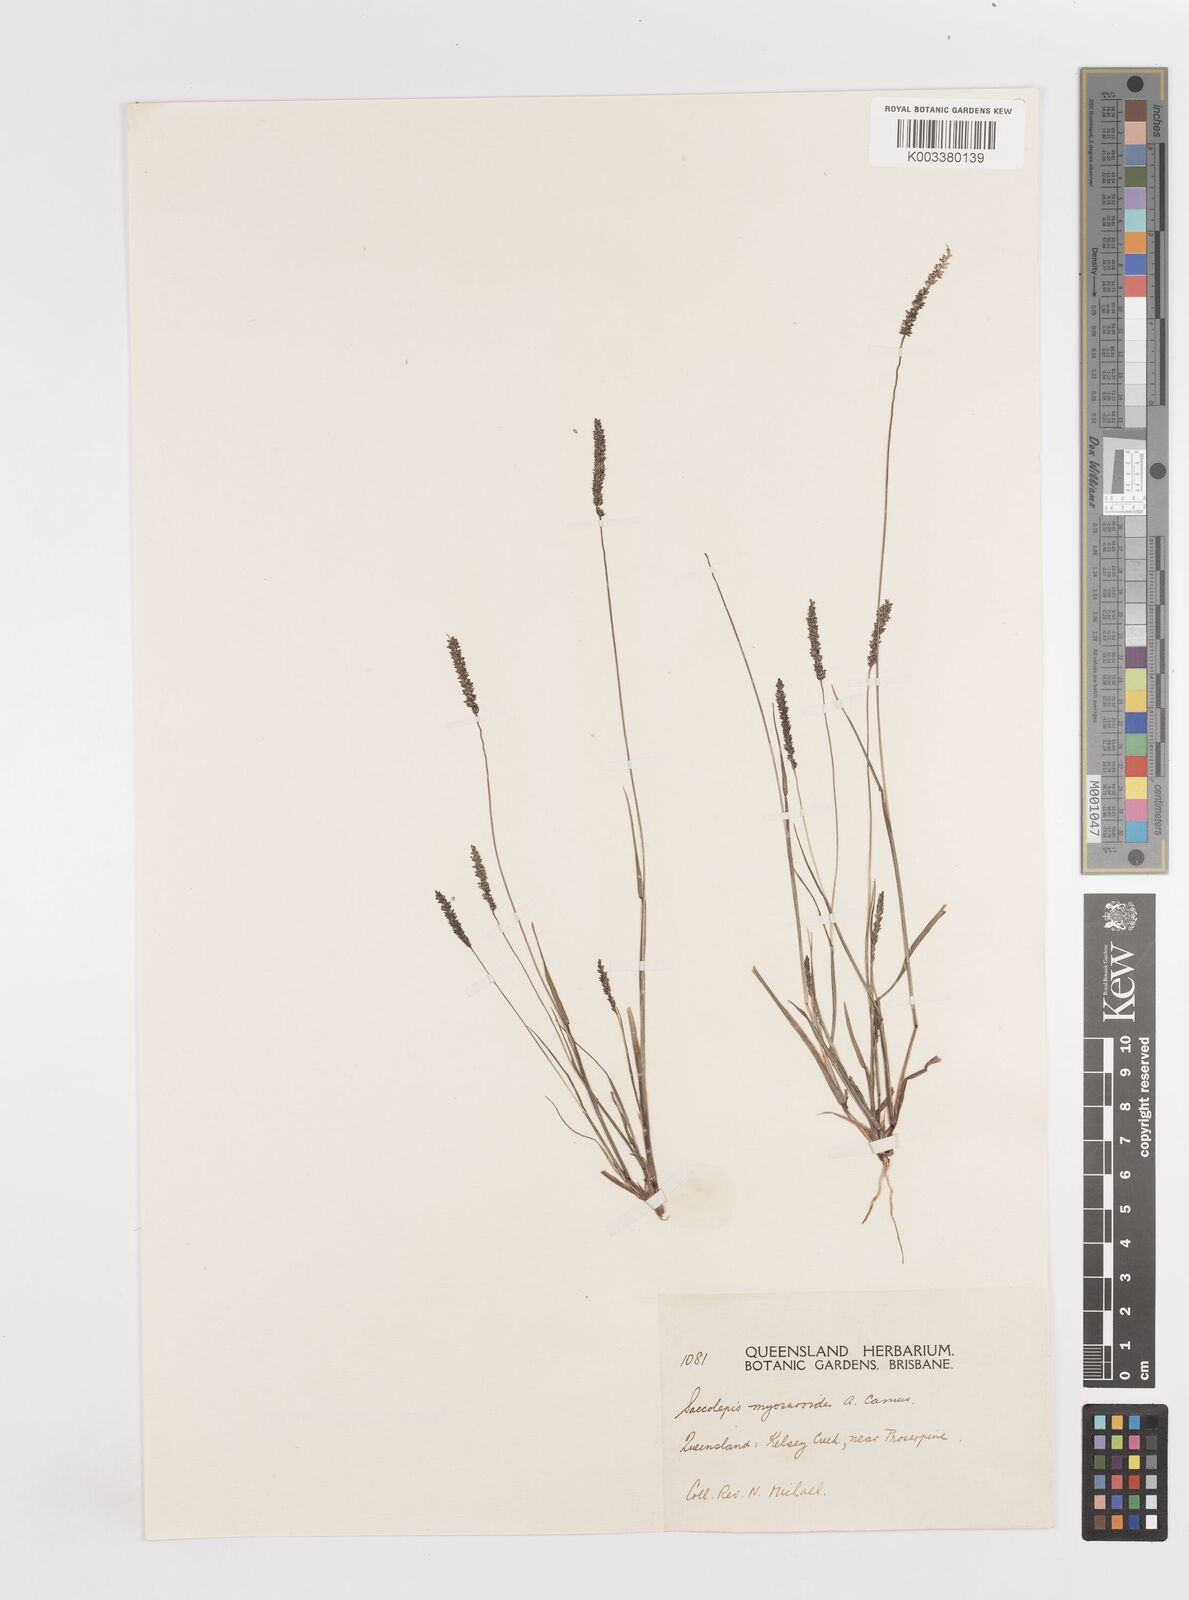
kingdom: Plantae
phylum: Tracheophyta
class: Liliopsida
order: Poales
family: Poaceae
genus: Sacciolepis
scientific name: Sacciolepis myosuroides
